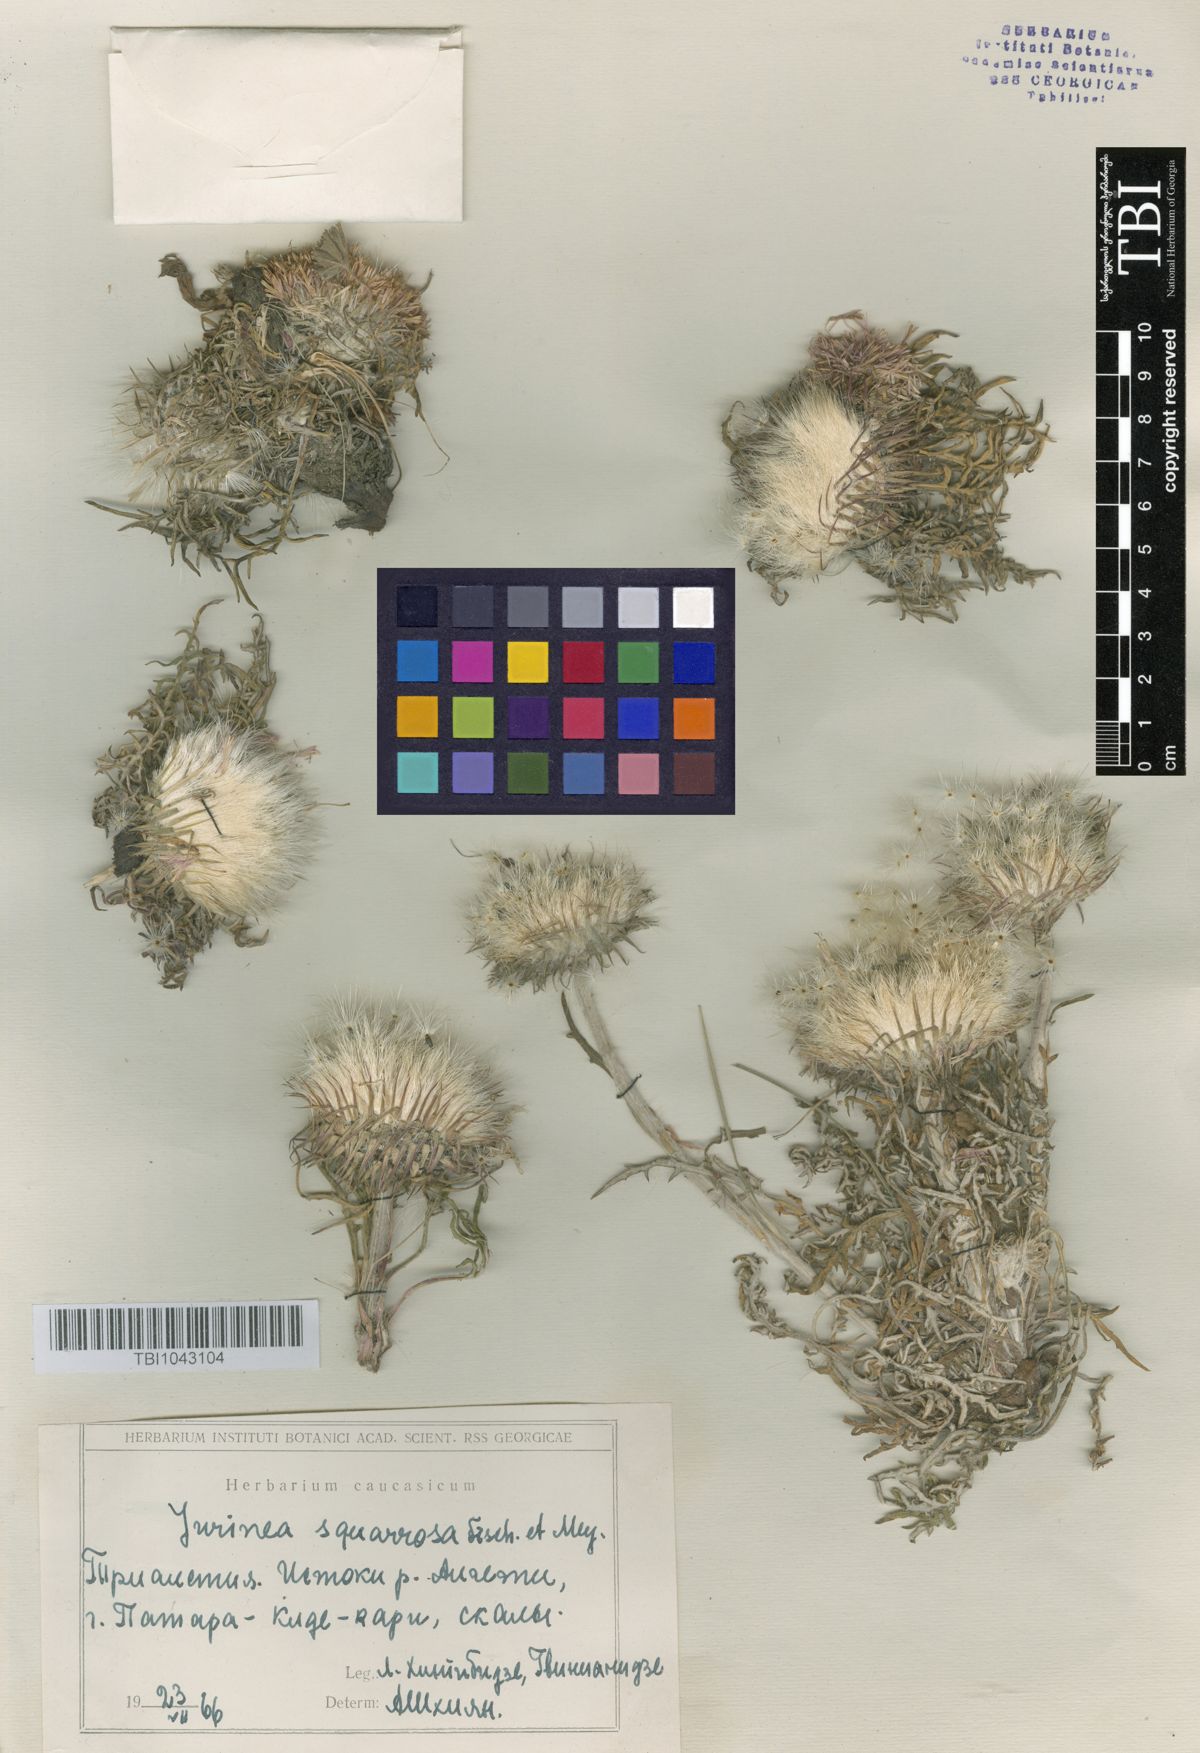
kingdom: Plantae
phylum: Tracheophyta
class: Magnoliopsida
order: Asterales
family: Asteraceae
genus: Jurinea
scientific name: Jurinea squarrosa
